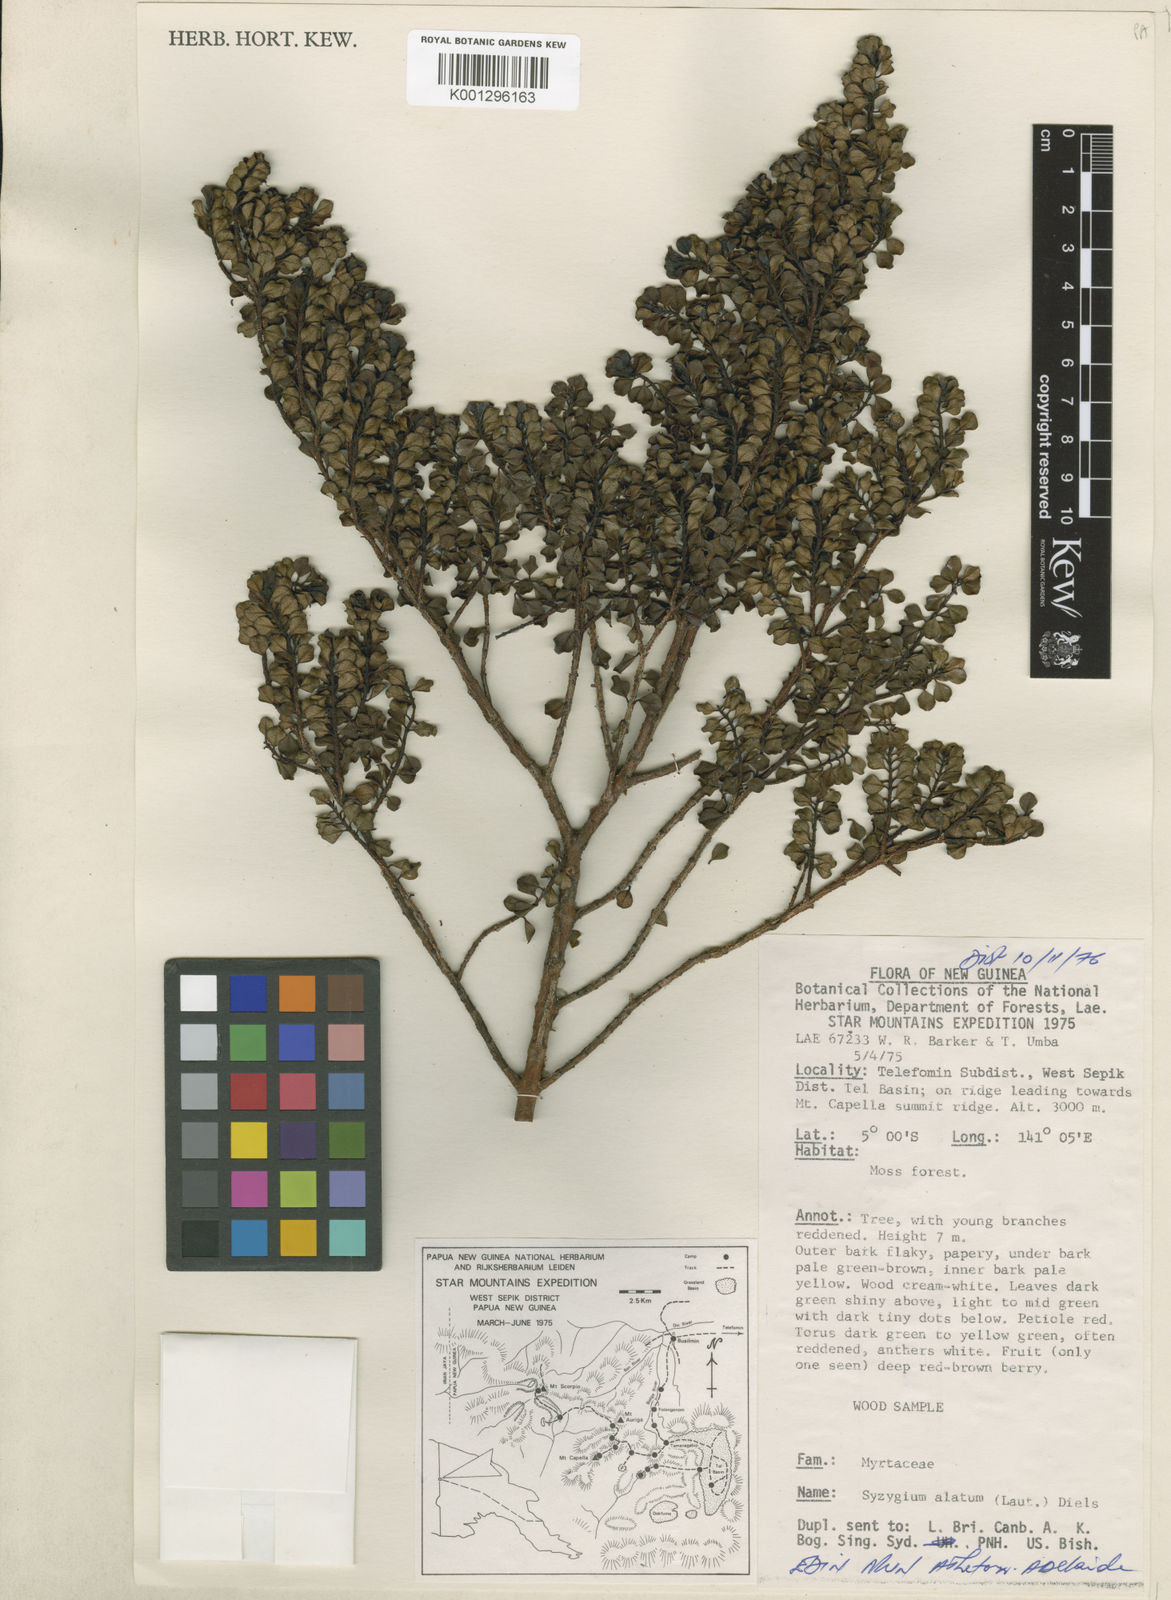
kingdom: Plantae
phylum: Tracheophyta
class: Magnoliopsida
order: Myrtales
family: Myrtaceae
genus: Syzygium
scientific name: Syzygium alatum
